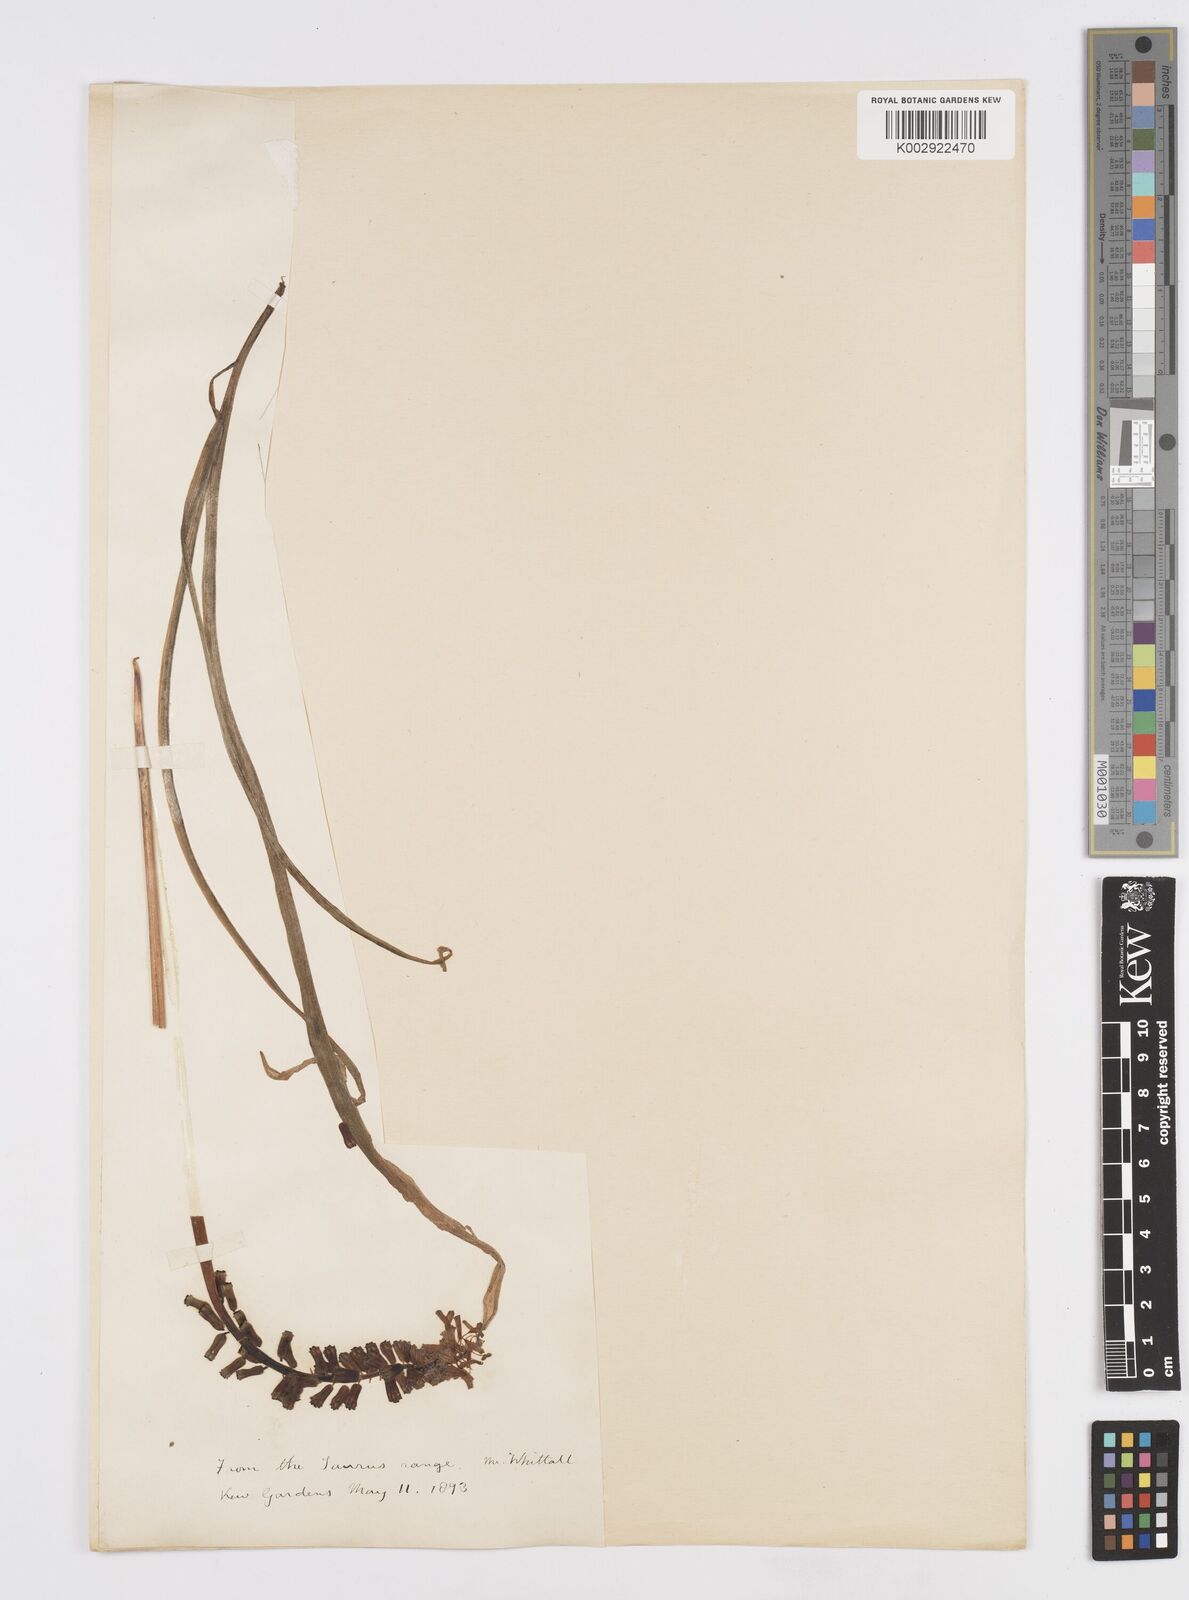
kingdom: Plantae
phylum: Tracheophyta
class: Liliopsida
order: Asparagales
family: Asparagaceae
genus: Muscari
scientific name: Muscari tenuiflorum
